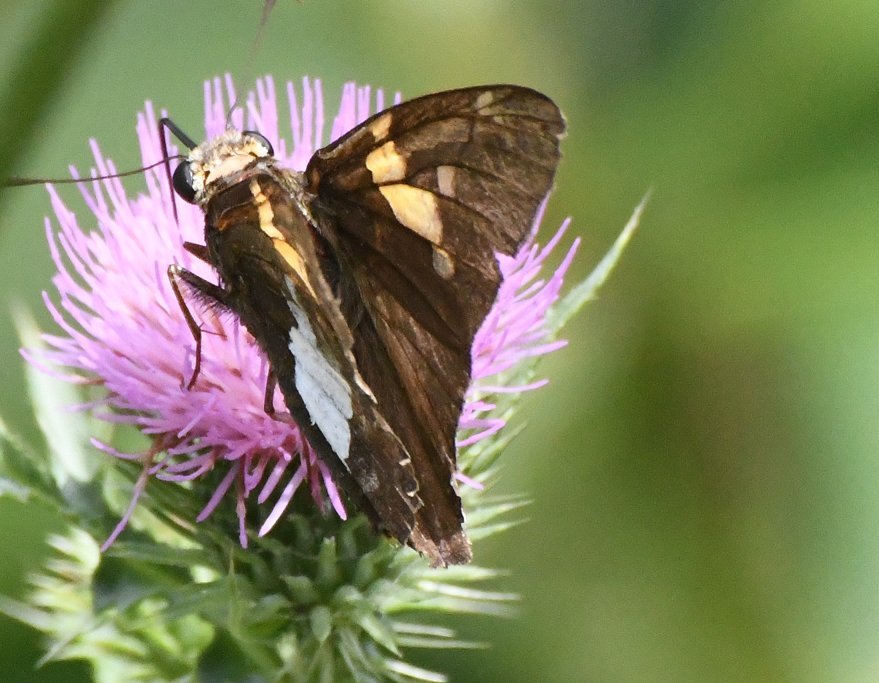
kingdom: Animalia
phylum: Arthropoda
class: Insecta
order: Lepidoptera
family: Hesperiidae
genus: Epargyreus
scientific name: Epargyreus clarus
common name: Silver-spotted Skipper
